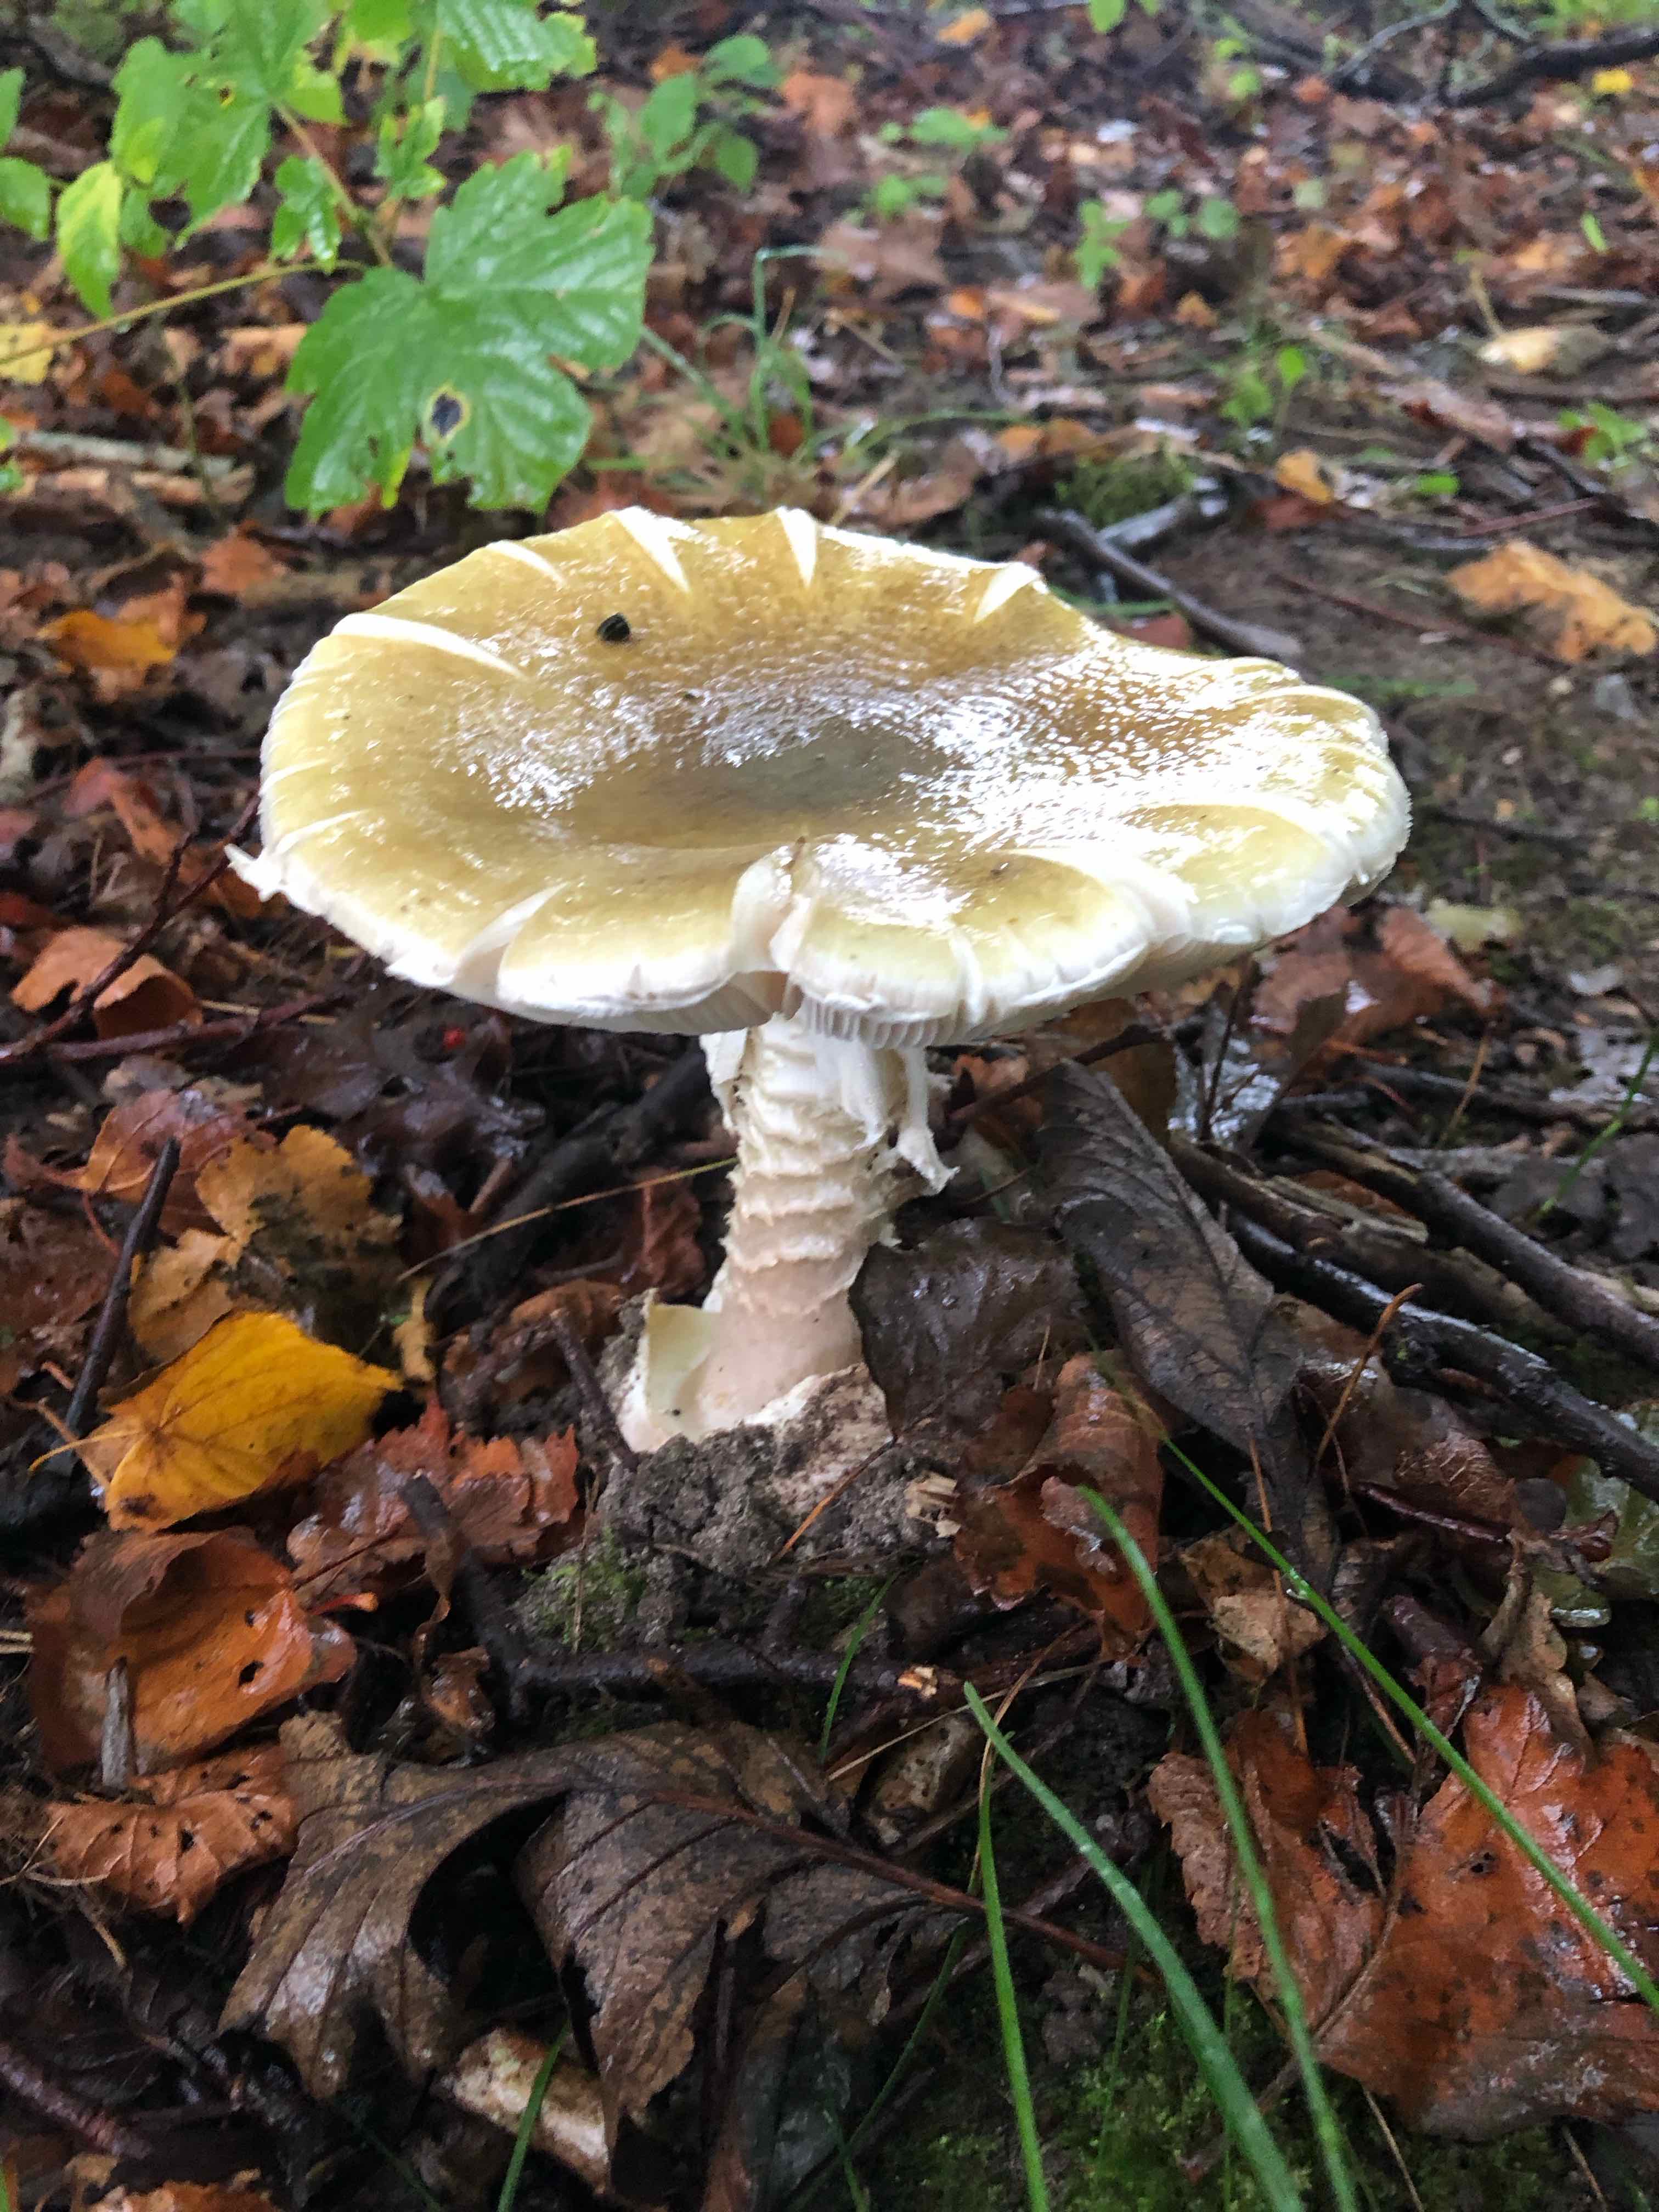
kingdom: Fungi
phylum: Basidiomycota
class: Agaricomycetes
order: Agaricales
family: Amanitaceae
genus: Amanita
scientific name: Amanita phalloides
